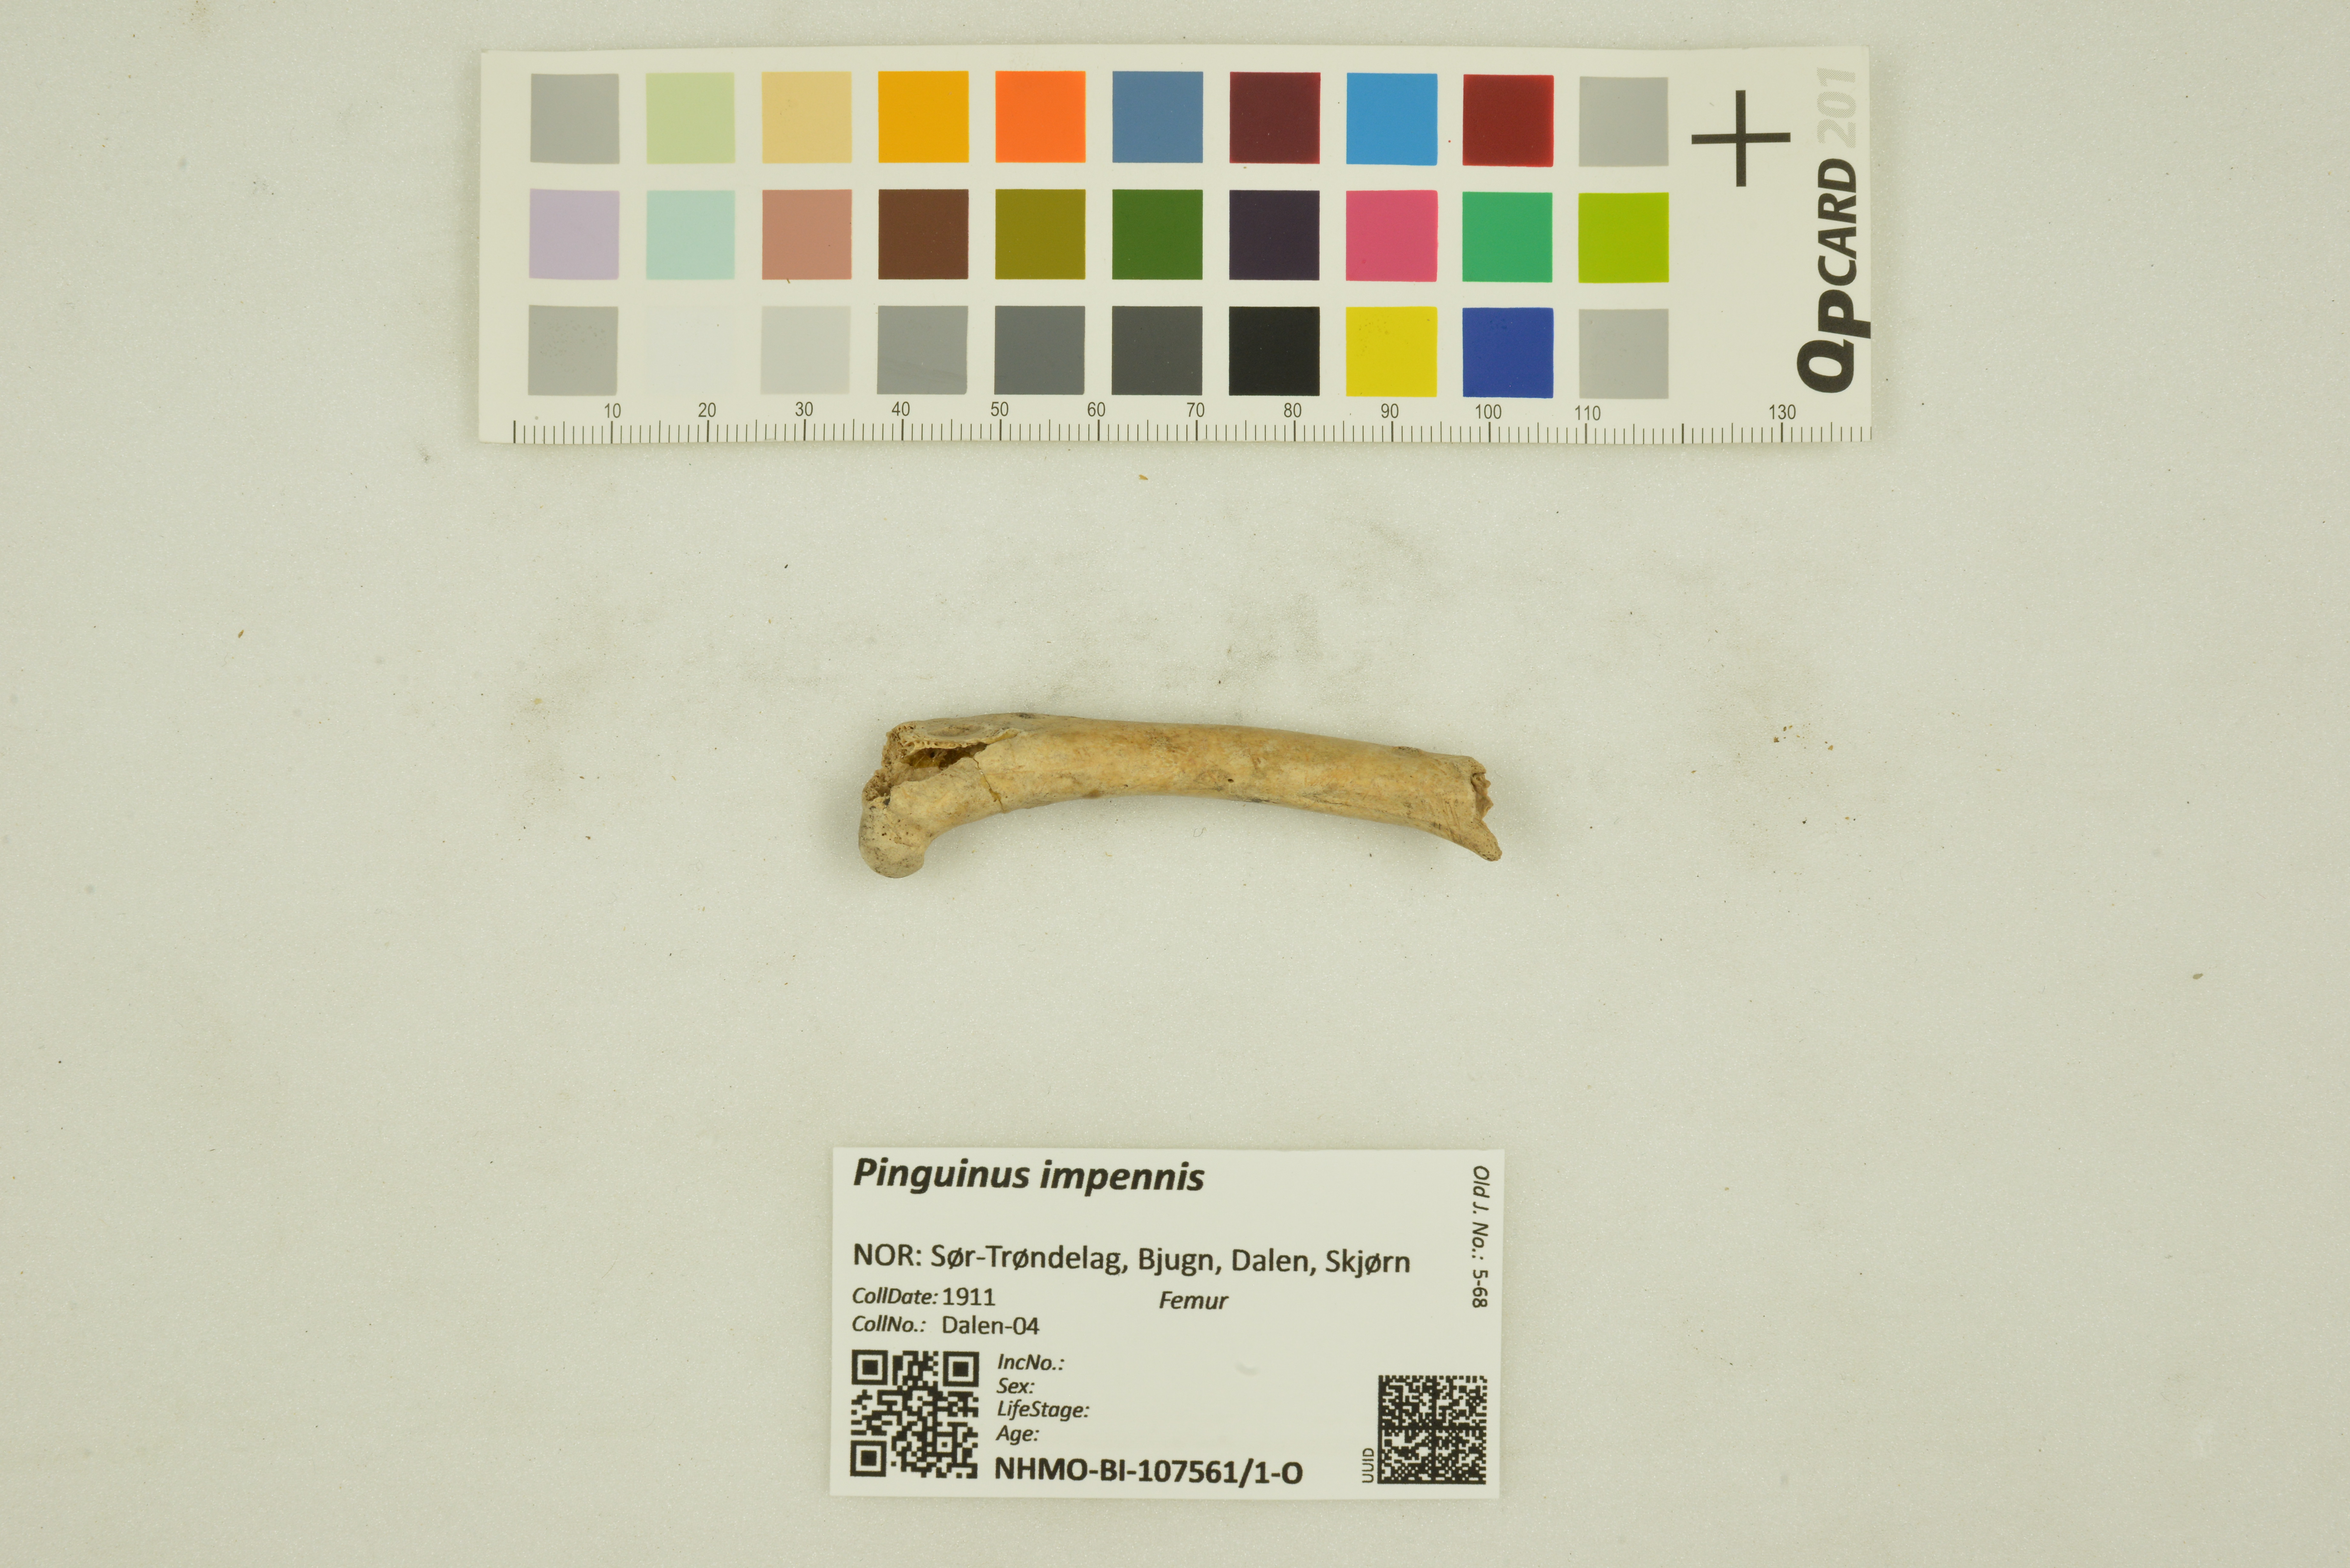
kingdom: Animalia
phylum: Chordata
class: Aves
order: Charadriiformes
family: Alcidae
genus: Pinguinus
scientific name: Pinguinus impennis
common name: Great auk
